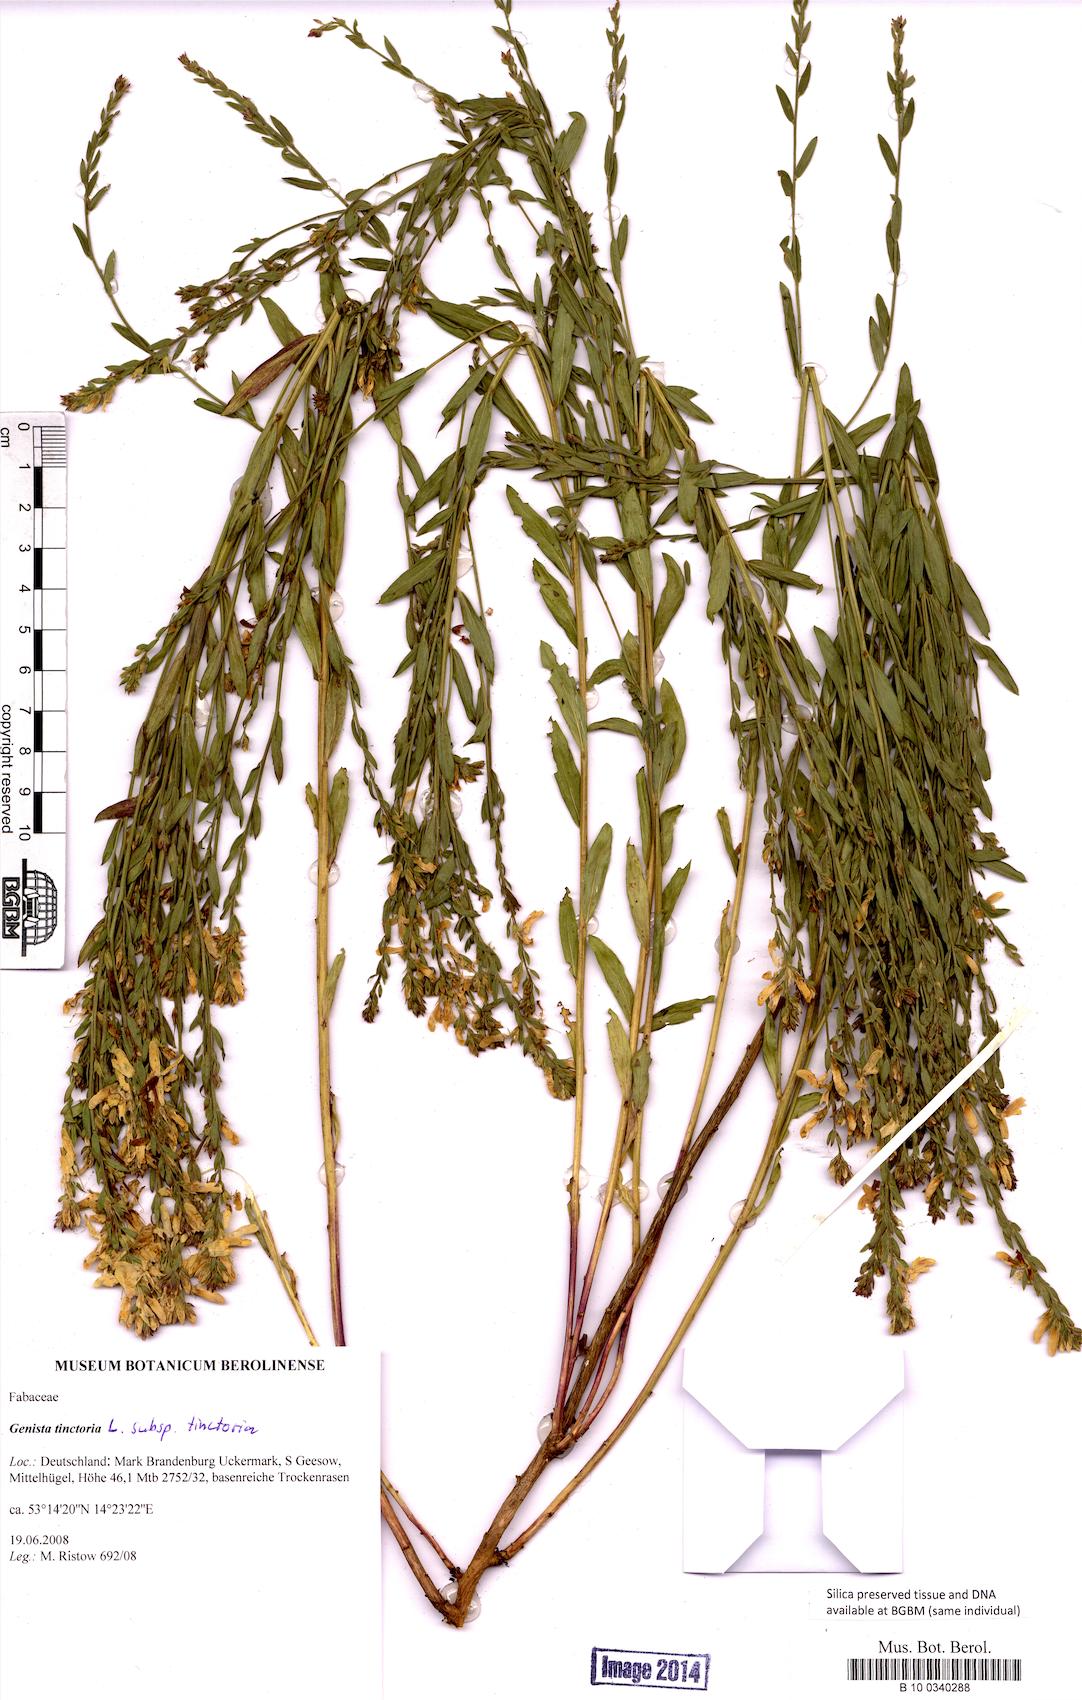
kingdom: Plantae
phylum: Tracheophyta
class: Magnoliopsida
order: Fabales
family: Fabaceae
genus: Genista
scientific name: Genista tinctoria
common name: Dyer's greenweed
